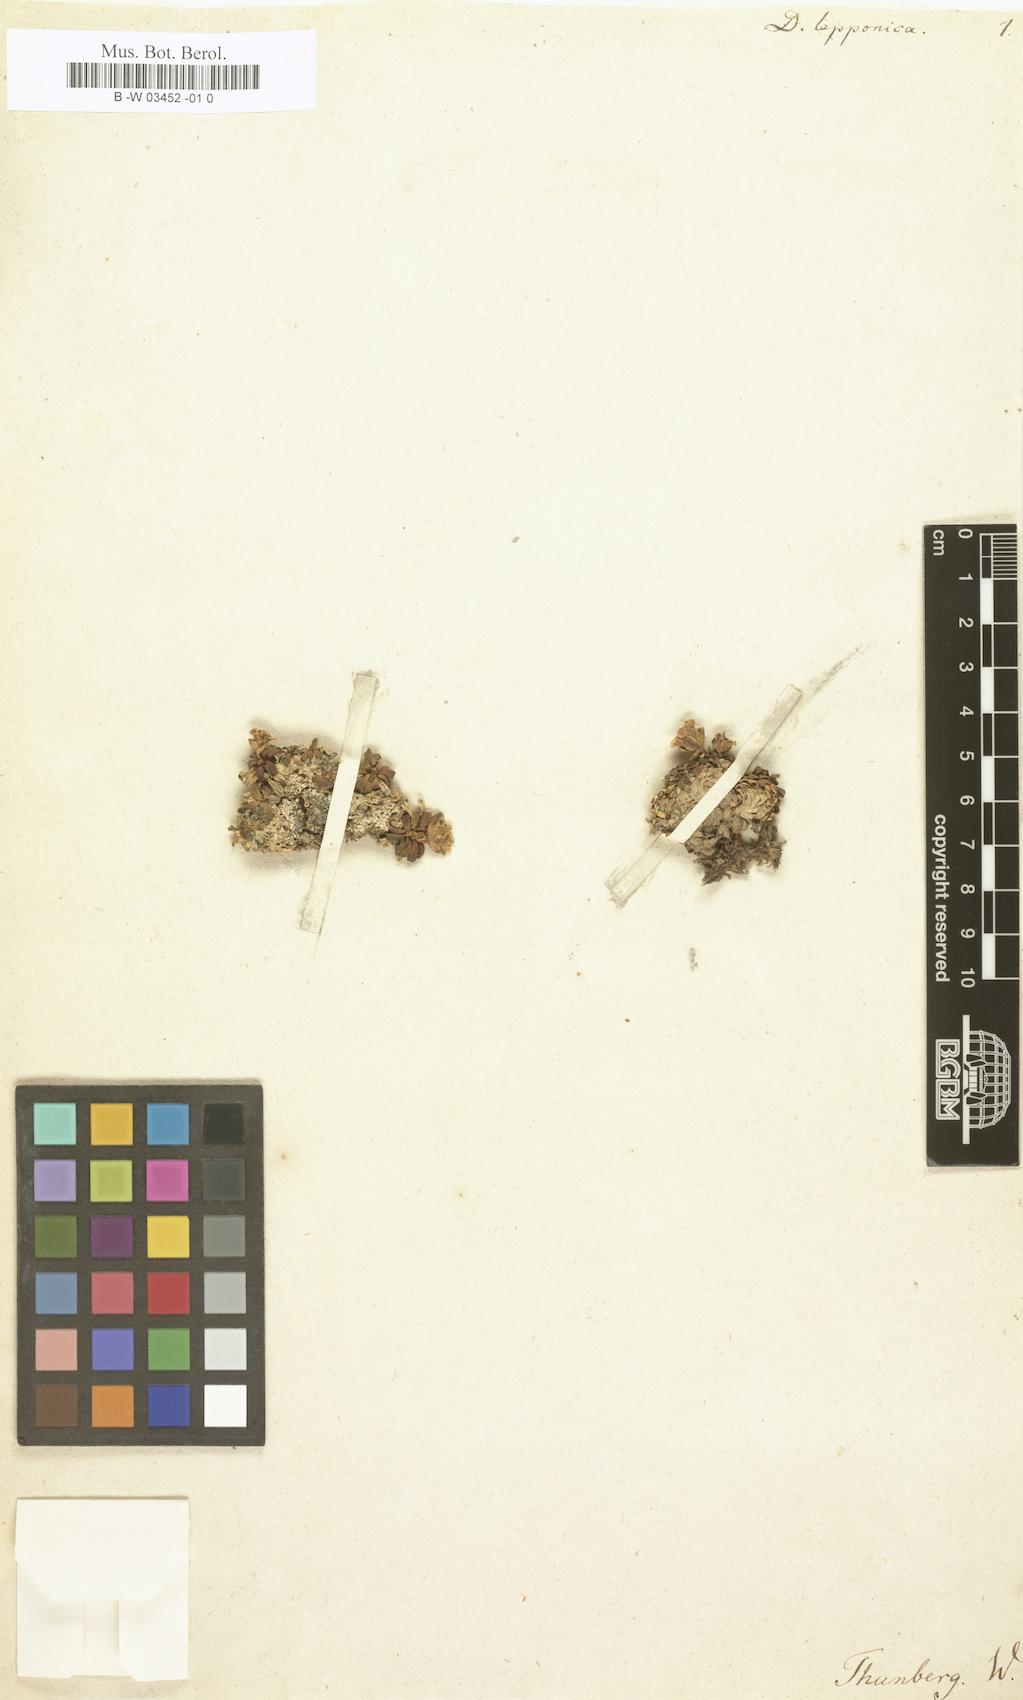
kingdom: Plantae
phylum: Tracheophyta
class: Magnoliopsida
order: Ericales
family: Diapensiaceae
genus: Diapensia
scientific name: Diapensia lapponica
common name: Diapensia
